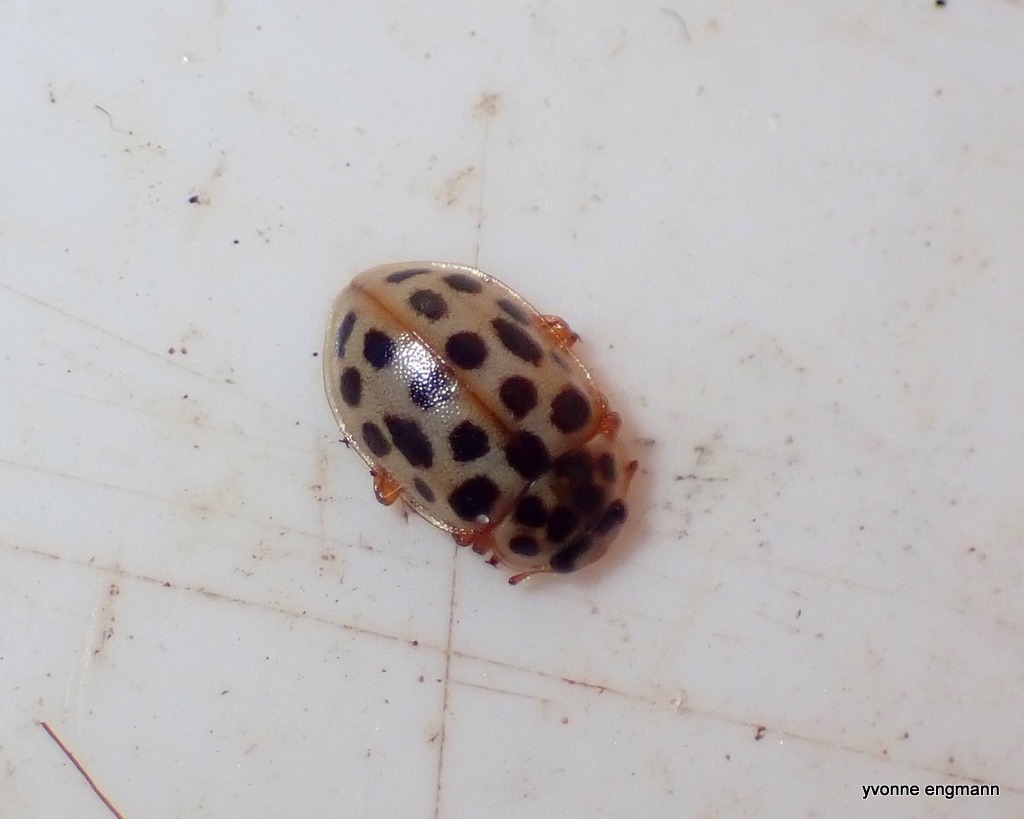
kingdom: Animalia
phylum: Arthropoda
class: Insecta
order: Coleoptera
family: Coccinellidae
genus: Anisosticta
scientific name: Anisosticta novemdecimpunctata
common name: Nittenplettet mariehøne
